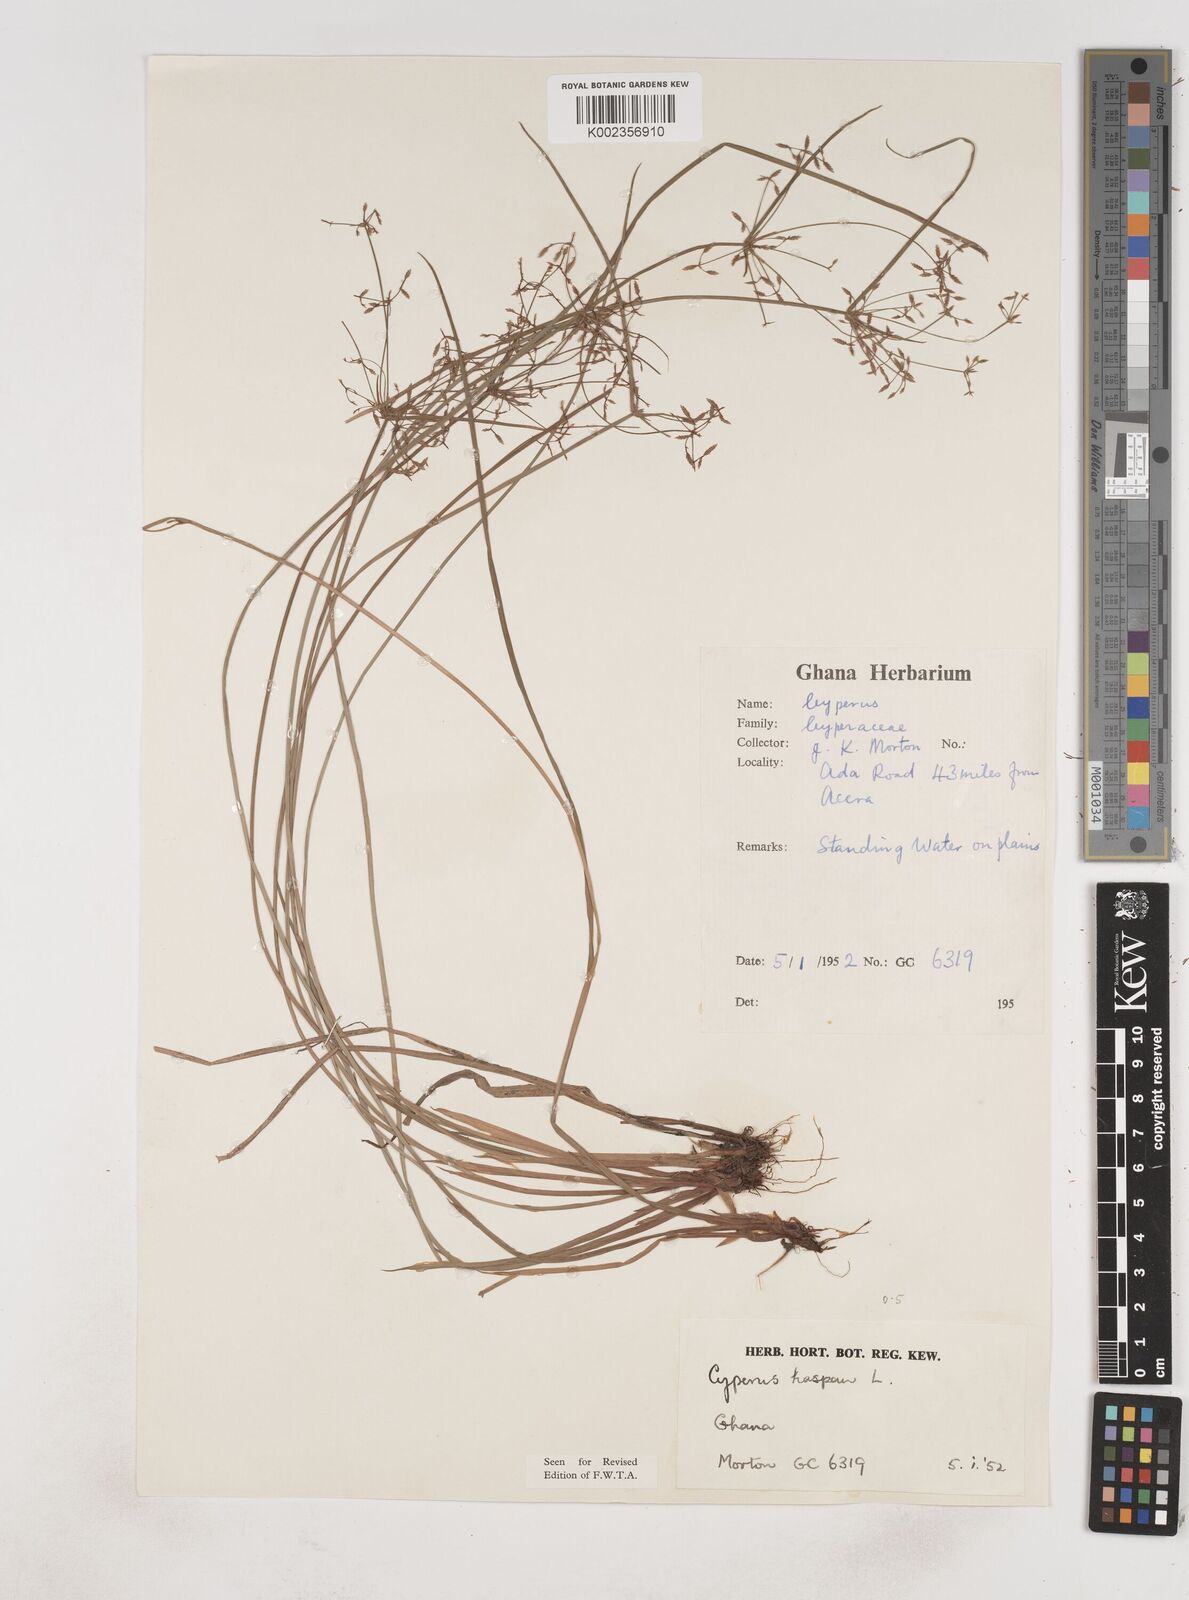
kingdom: Plantae
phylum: Tracheophyta
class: Liliopsida
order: Poales
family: Cyperaceae
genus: Cyperus
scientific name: Cyperus haspan
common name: Haspan flatsedge
